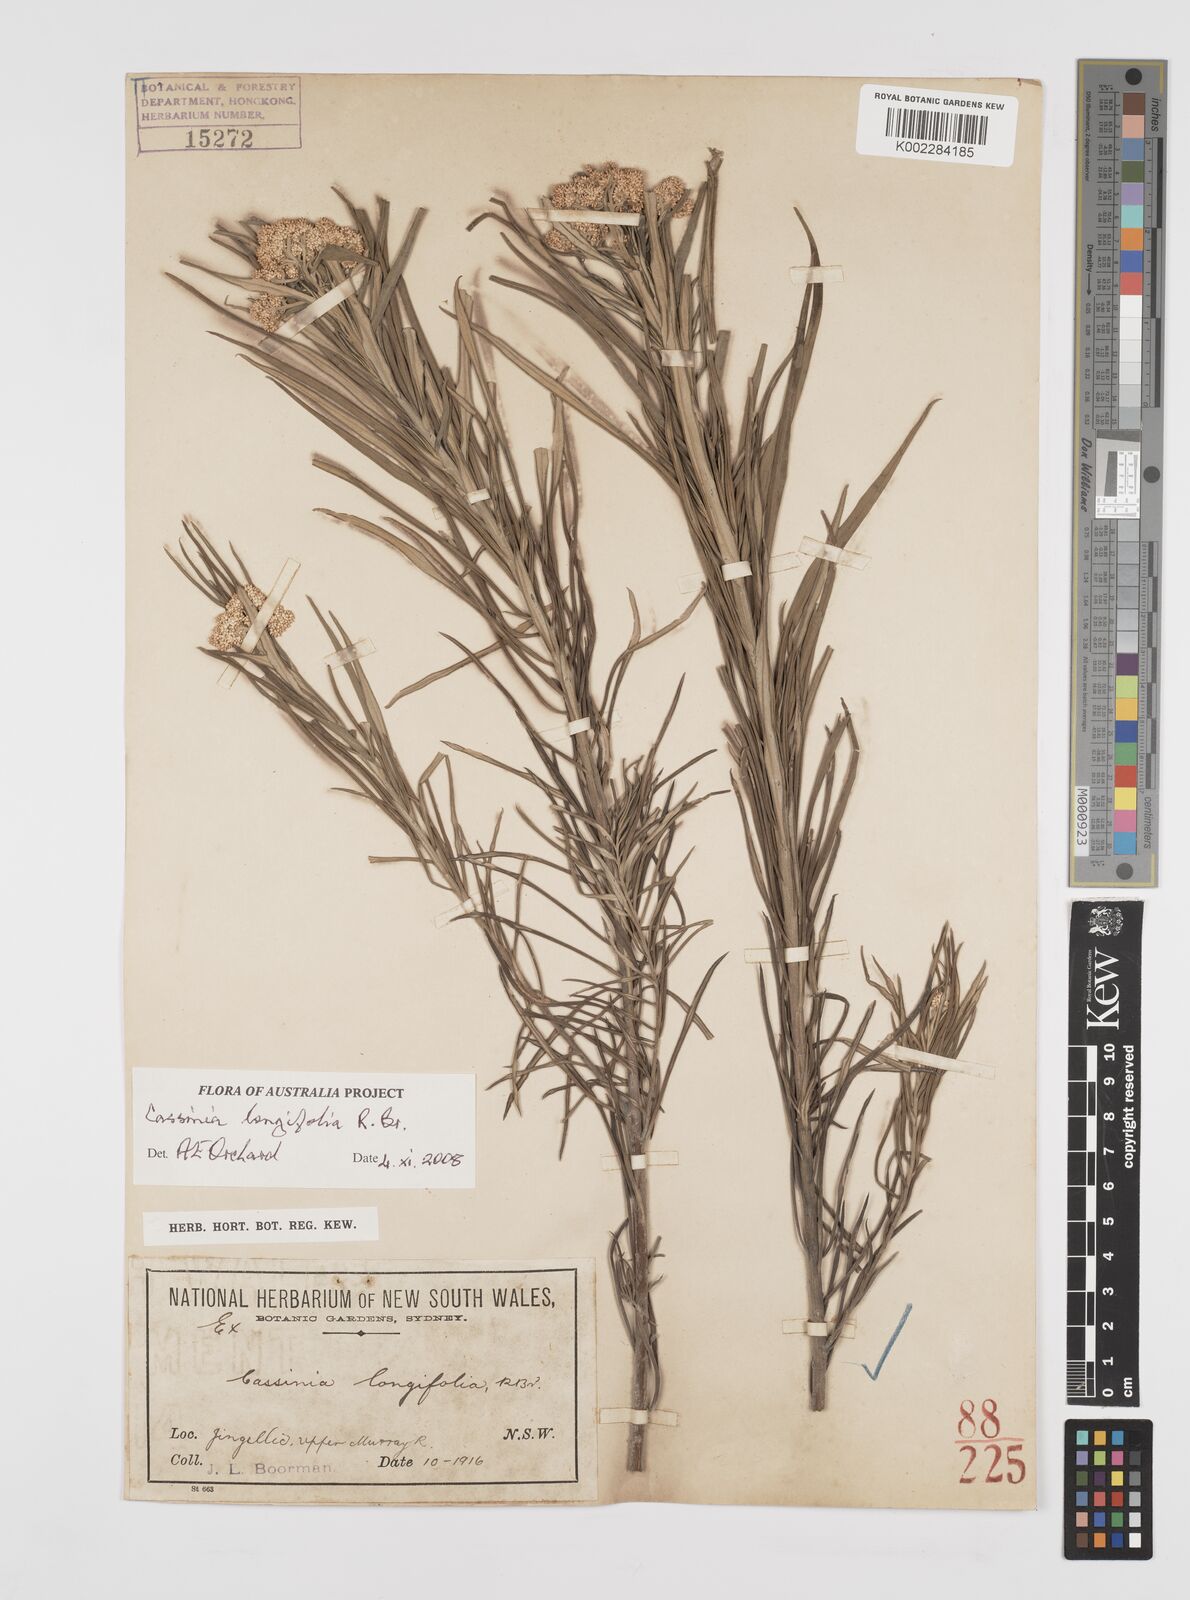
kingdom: Plantae
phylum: Tracheophyta
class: Magnoliopsida
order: Asterales
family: Asteraceae
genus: Cassinia
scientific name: Cassinia longifolia
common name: Longleaf-dogwood
